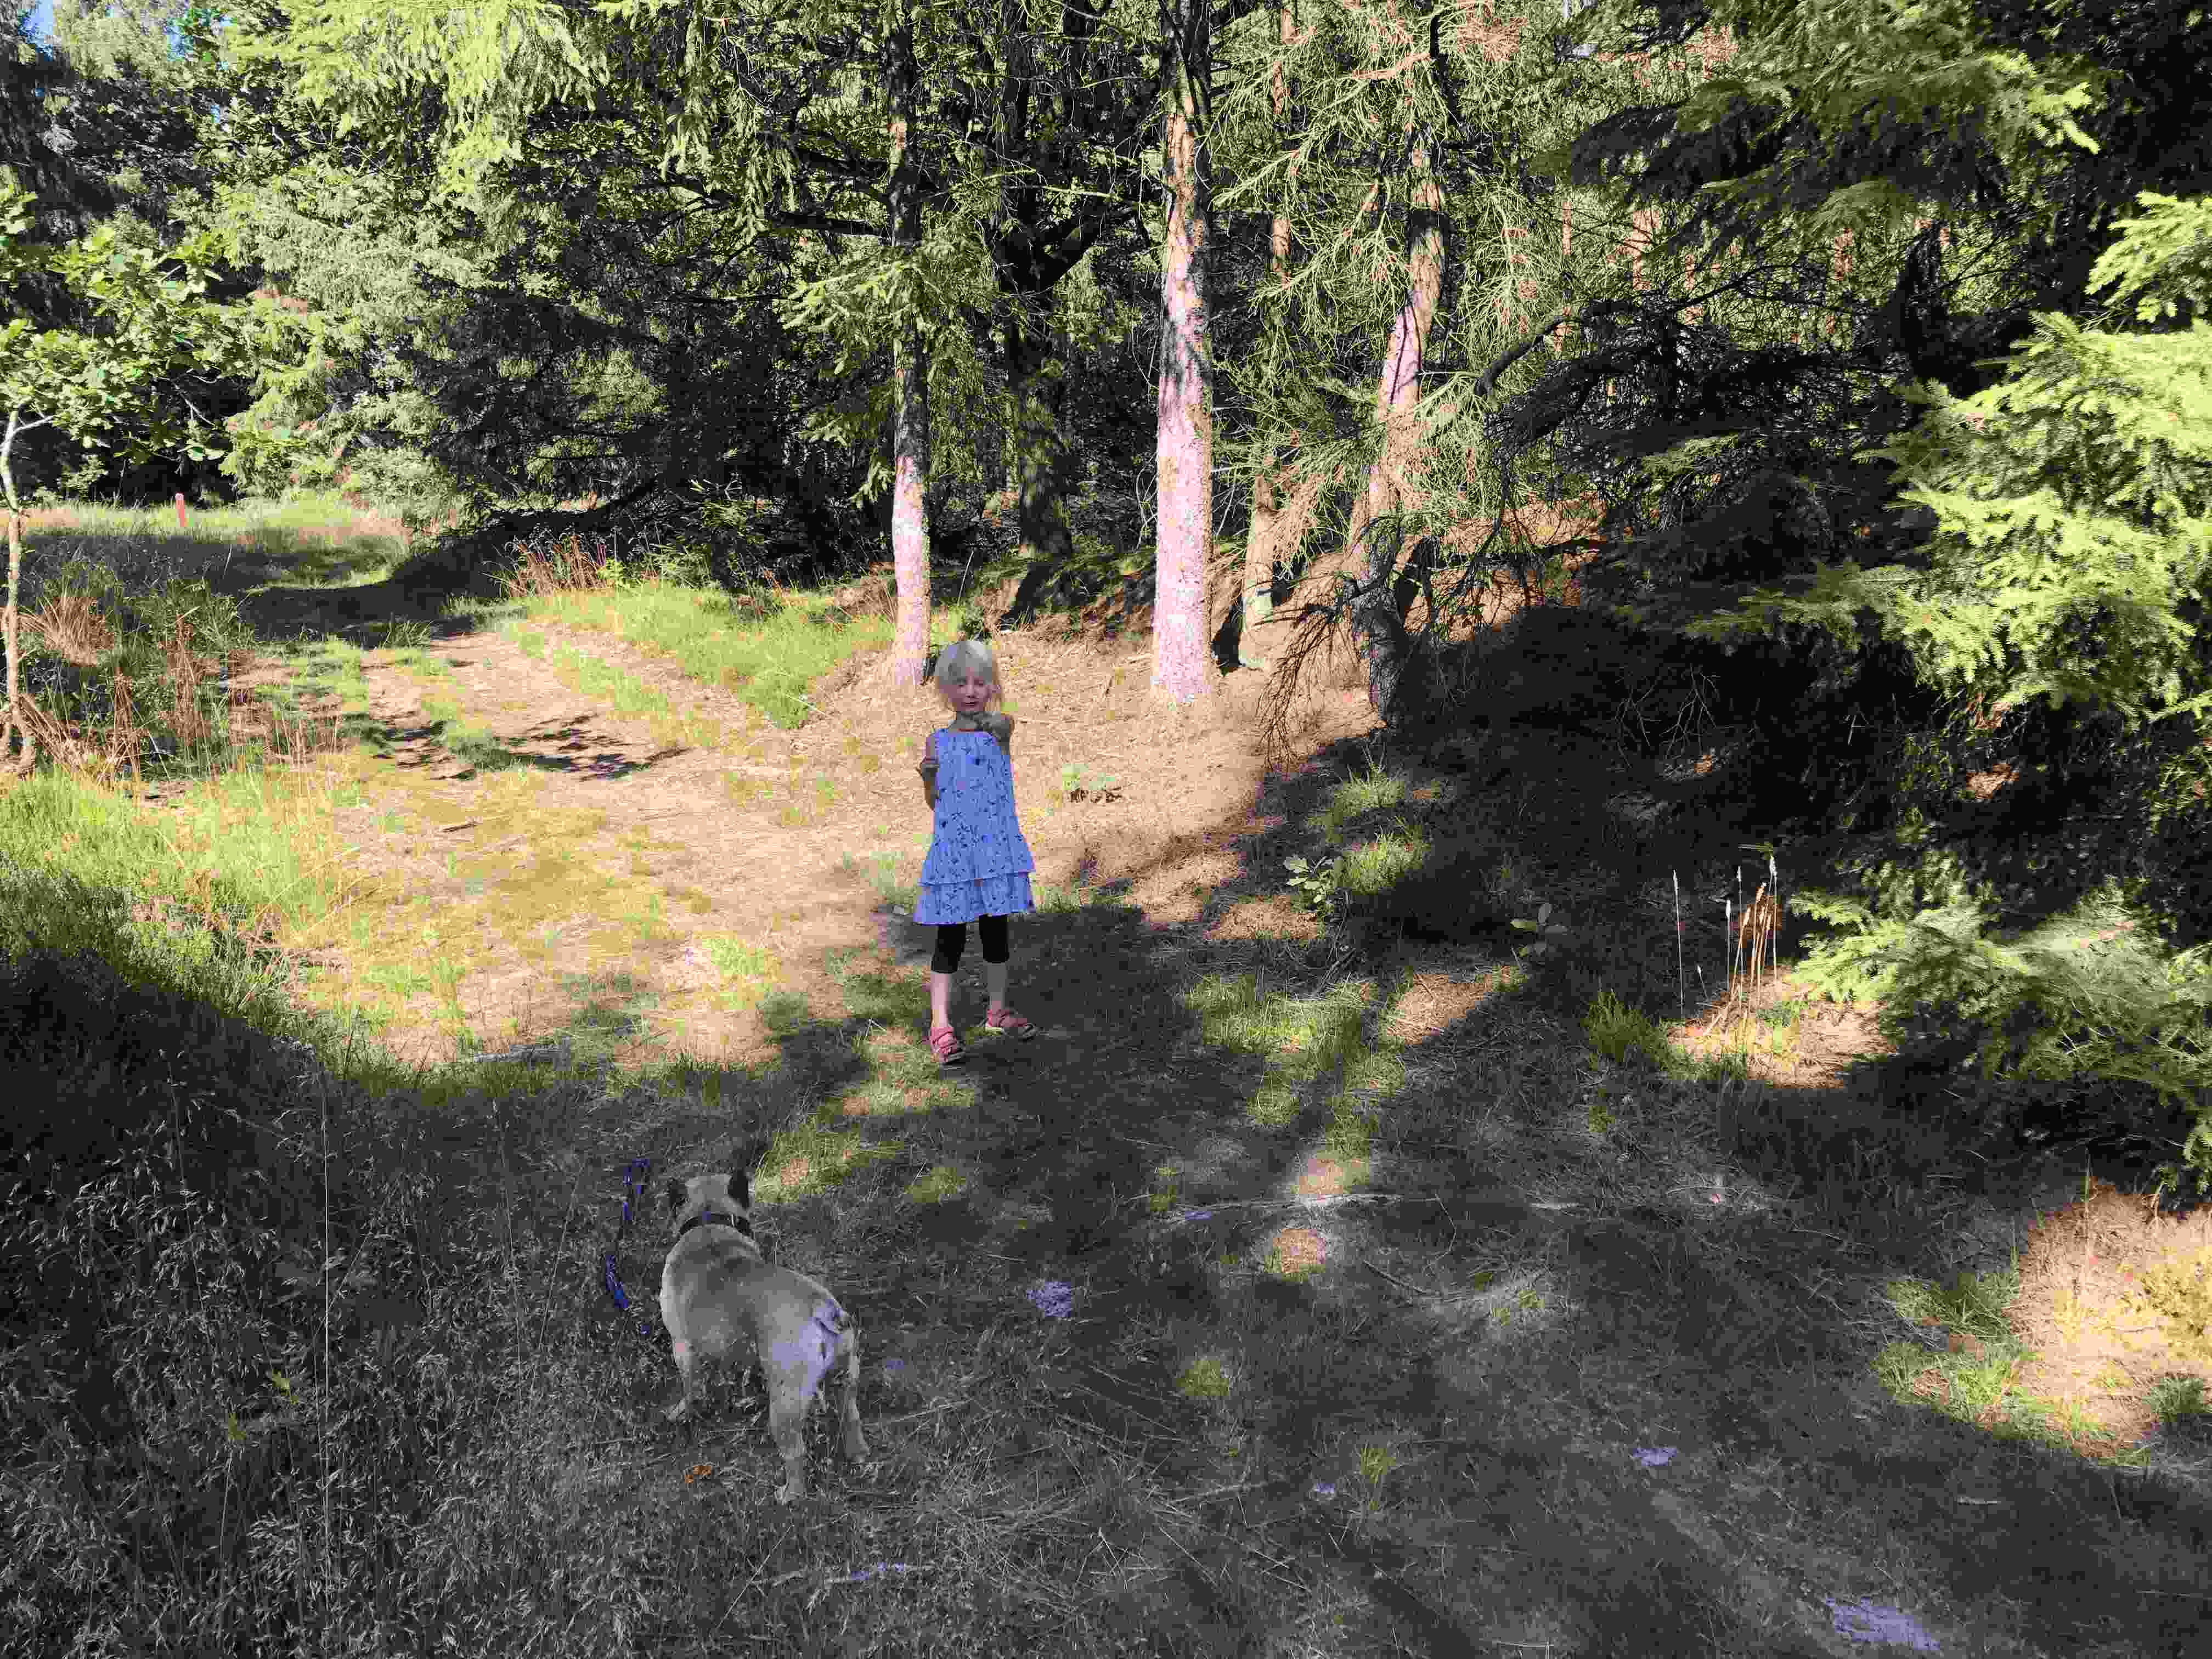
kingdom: Fungi
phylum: Basidiomycota
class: Agaricomycetes
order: Gloeophyllales
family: Gloeophyllaceae
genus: Gloeophyllum
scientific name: Gloeophyllum sepiarium
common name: fyrre-korkhat
